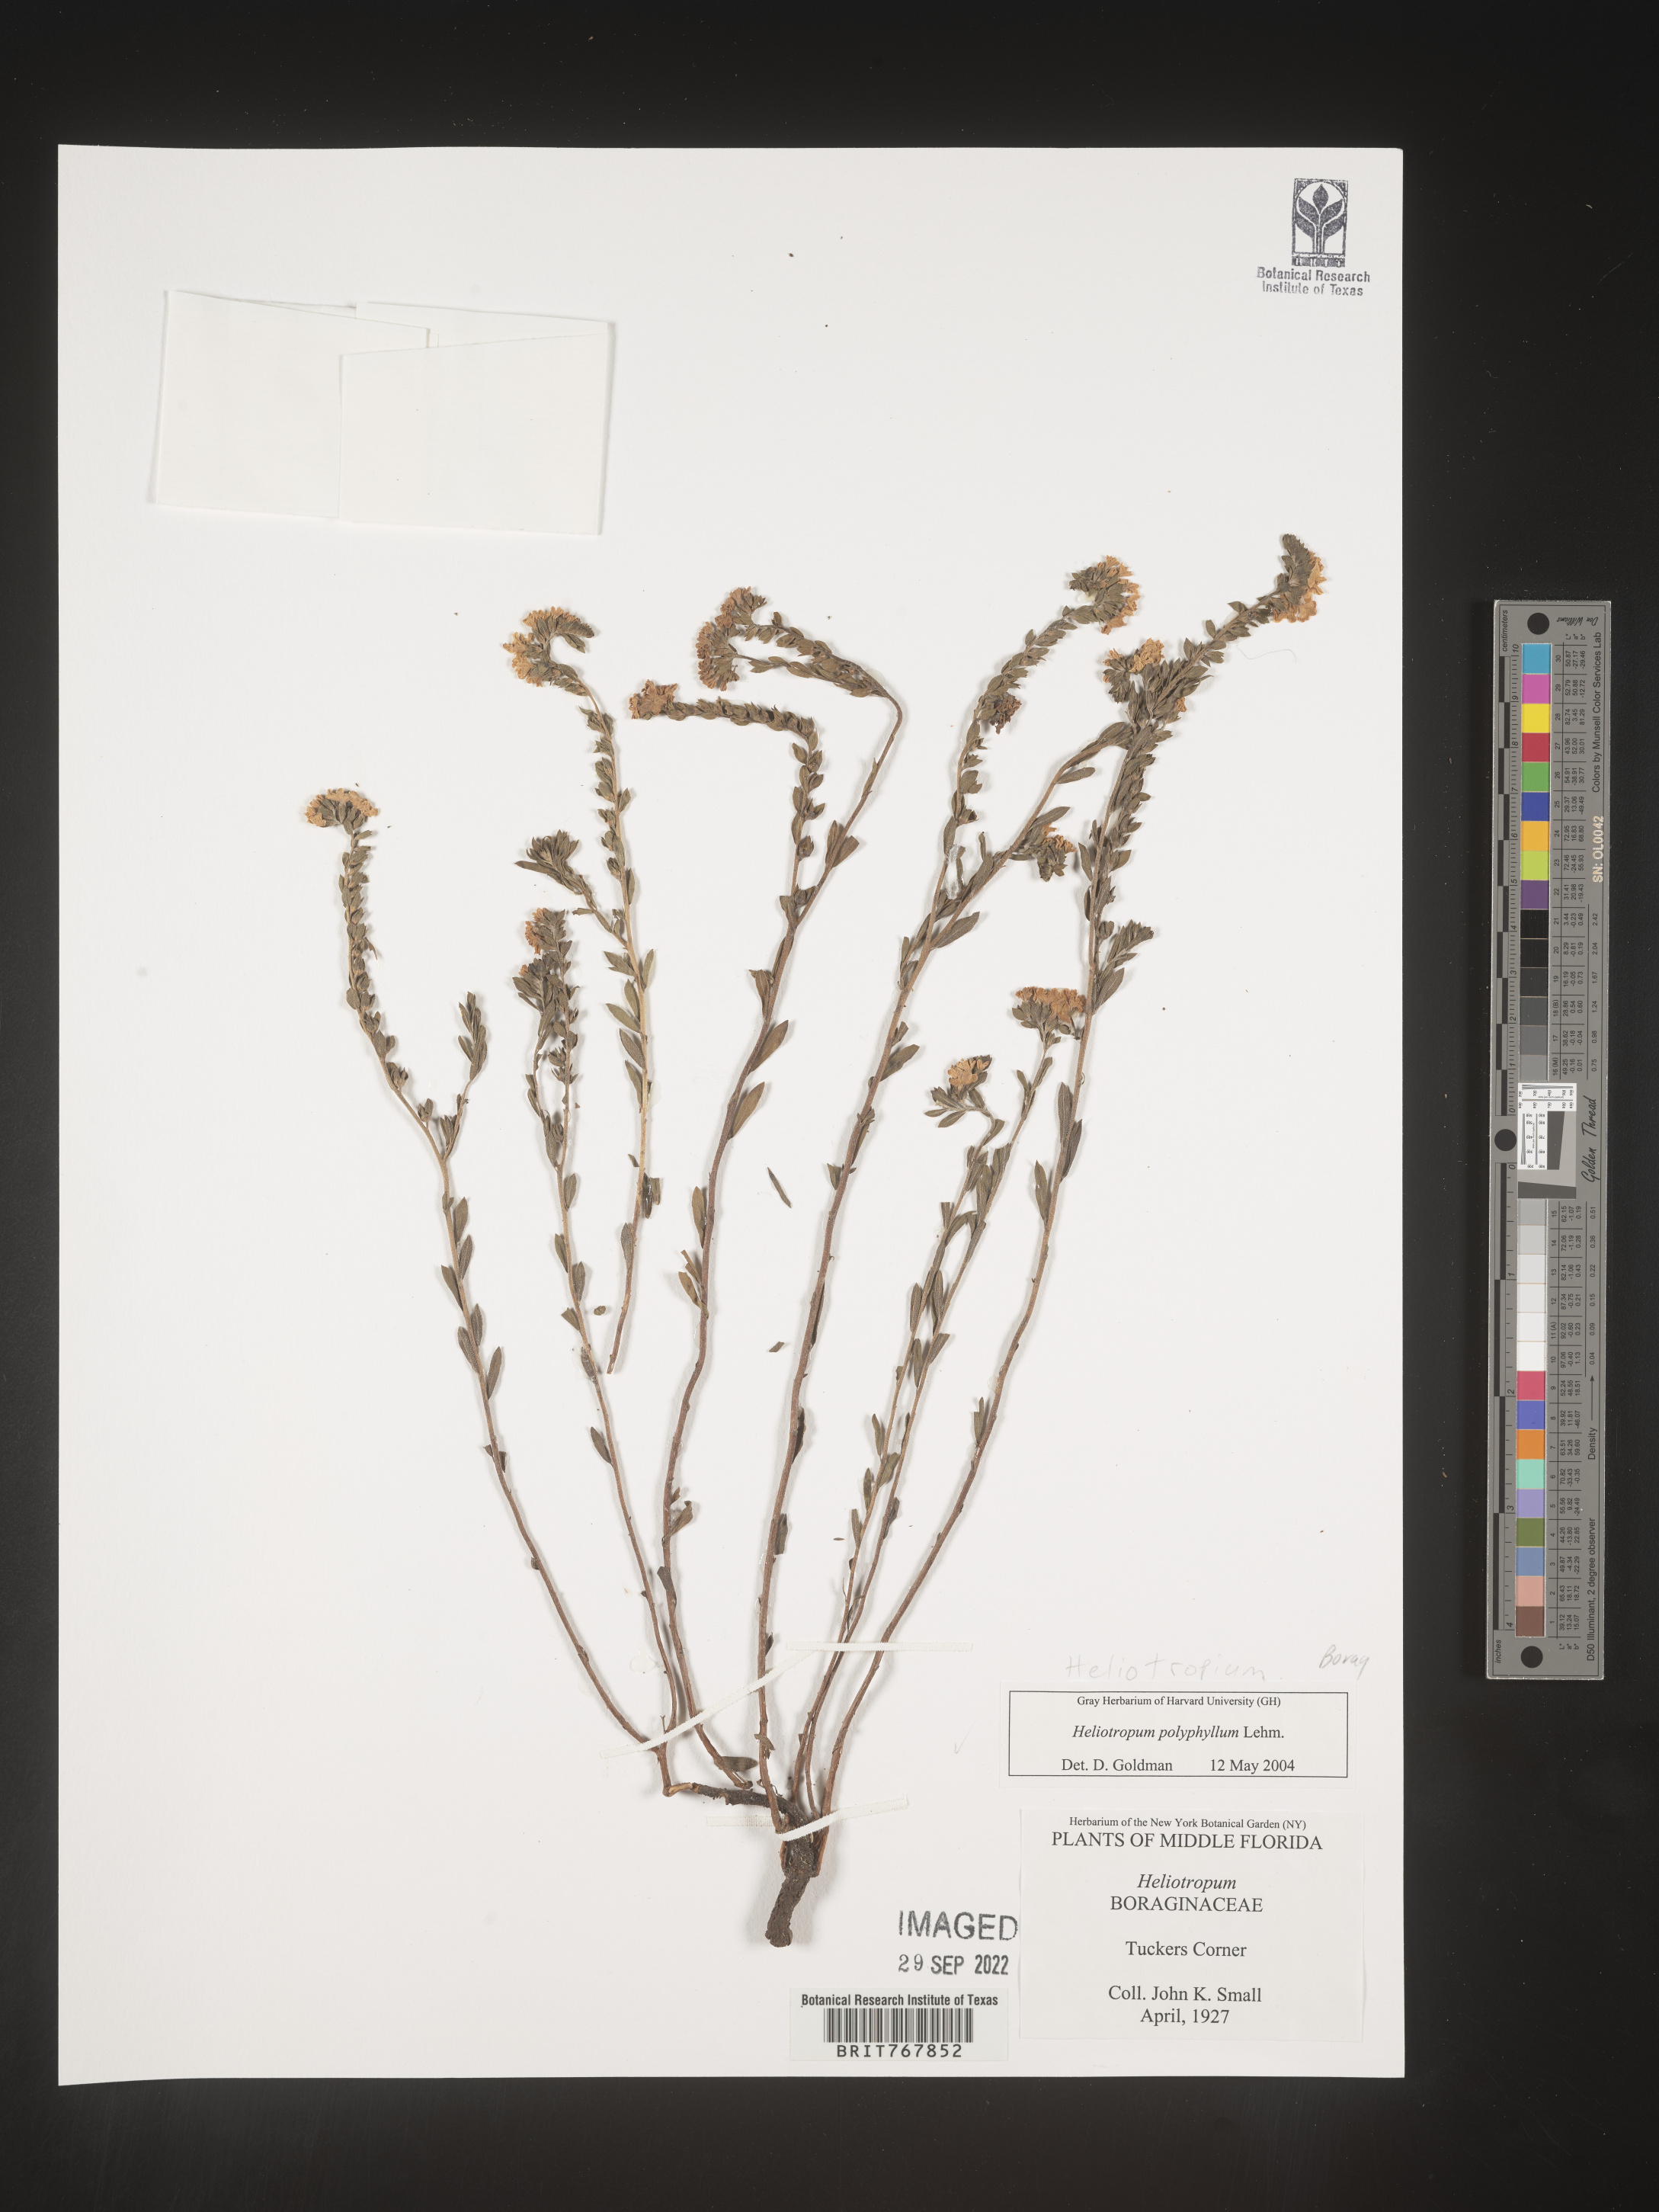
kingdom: Plantae
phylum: Tracheophyta
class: Magnoliopsida
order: Boraginales
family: Heliotropiaceae
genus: Heliotropium
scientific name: Heliotropium
